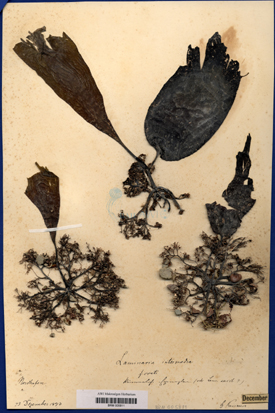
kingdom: Chromista
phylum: Ochrophyta
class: Phaeophyceae
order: Laminariales
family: Laminariaceae
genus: Laminaria
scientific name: Laminaria digitata
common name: Oarweed
